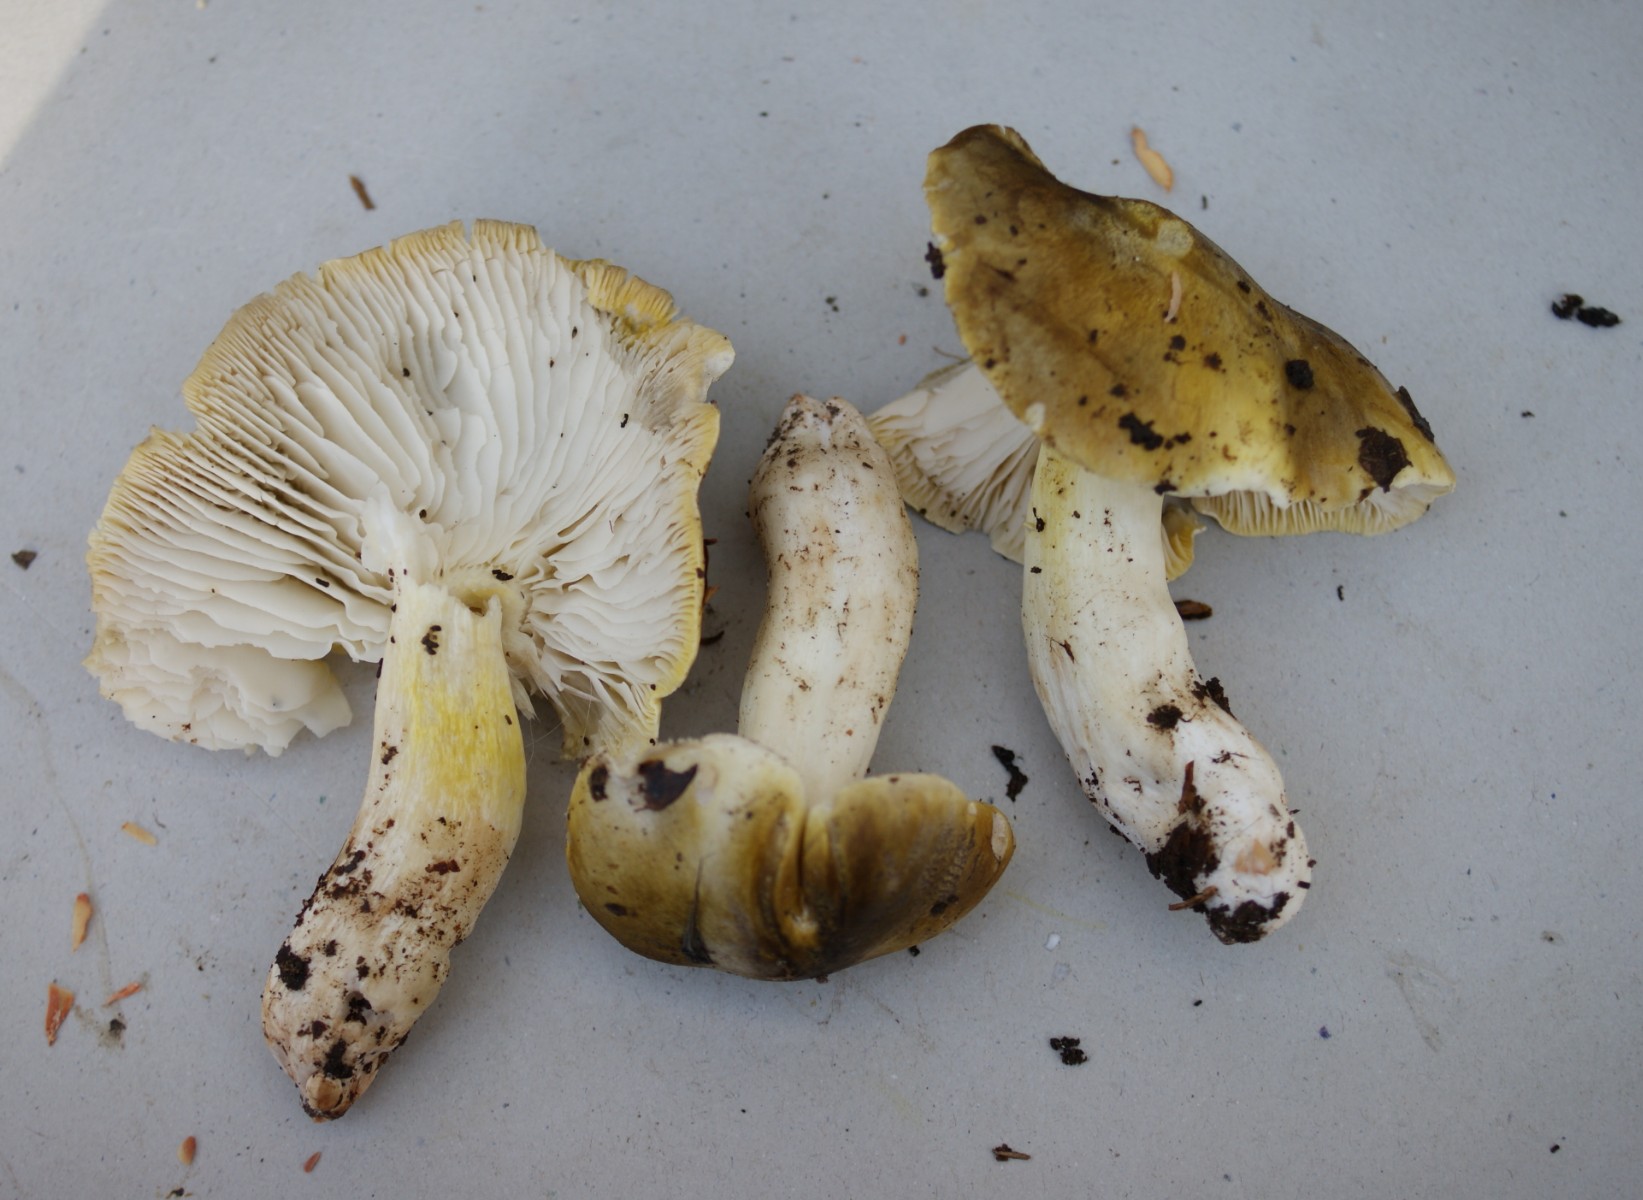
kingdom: Fungi
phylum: Basidiomycota
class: Agaricomycetes
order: Agaricales
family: Tricholomataceae
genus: Tricholoma
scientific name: Tricholoma sejunctum
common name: grøngul ridderhat
